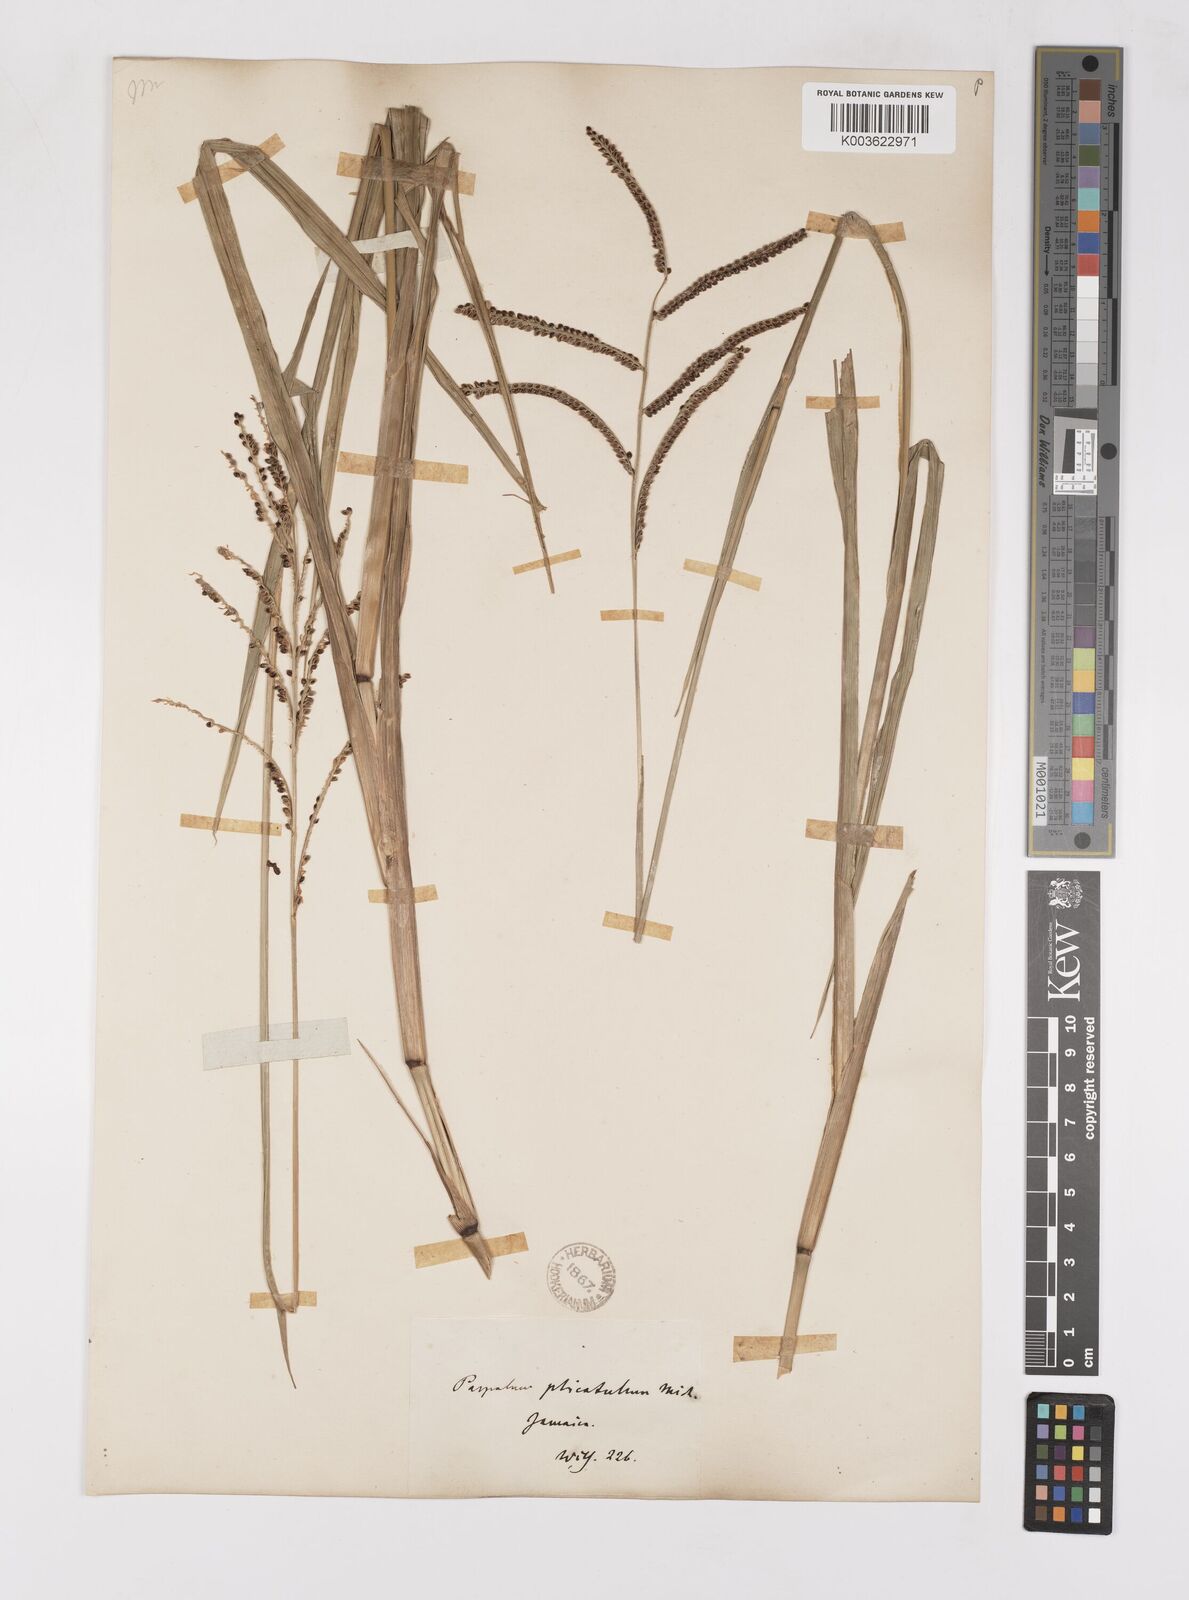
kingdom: Plantae
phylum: Tracheophyta
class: Liliopsida
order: Poales
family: Poaceae
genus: Paspalum
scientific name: Paspalum
